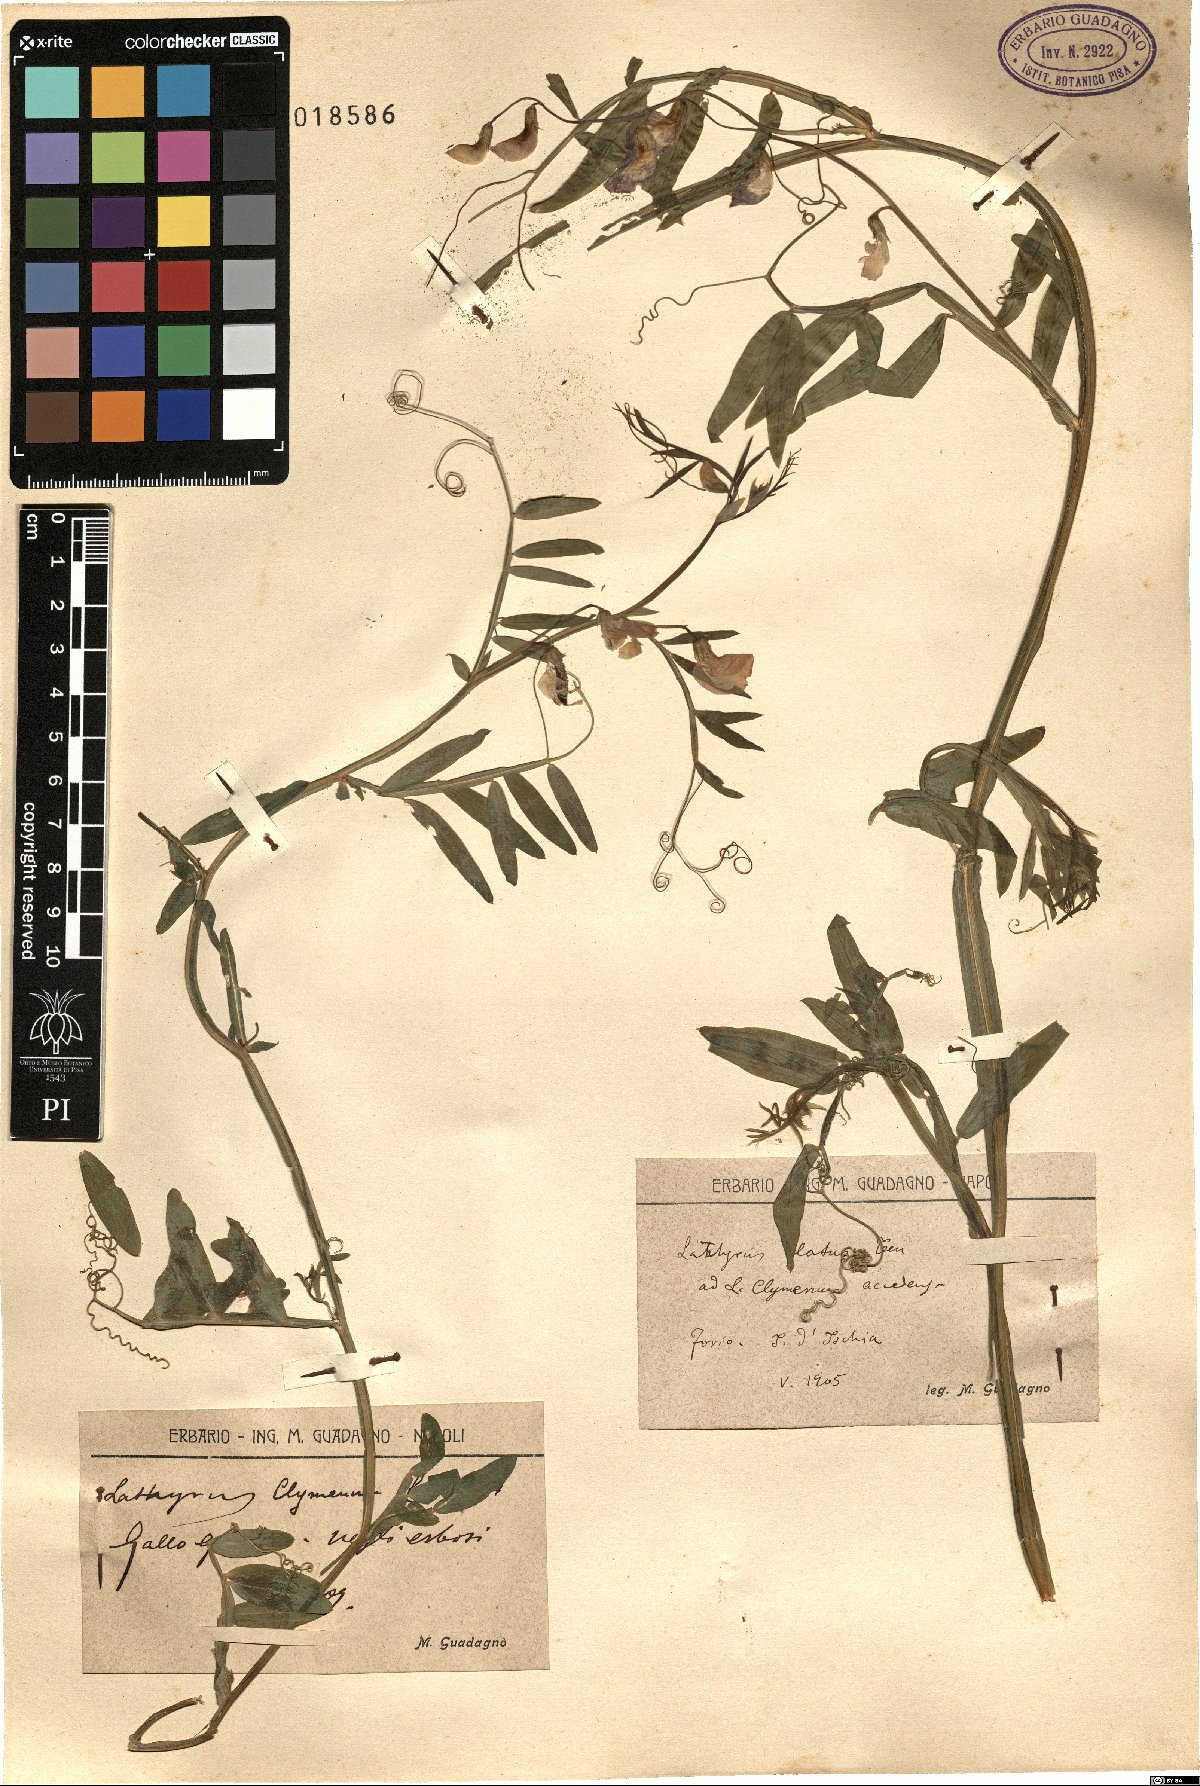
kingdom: Plantae
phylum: Tracheophyta
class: Magnoliopsida
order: Fabales
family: Fabaceae
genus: Lathyrus
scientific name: Lathyrus clymenum
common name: Spanish vetchling
